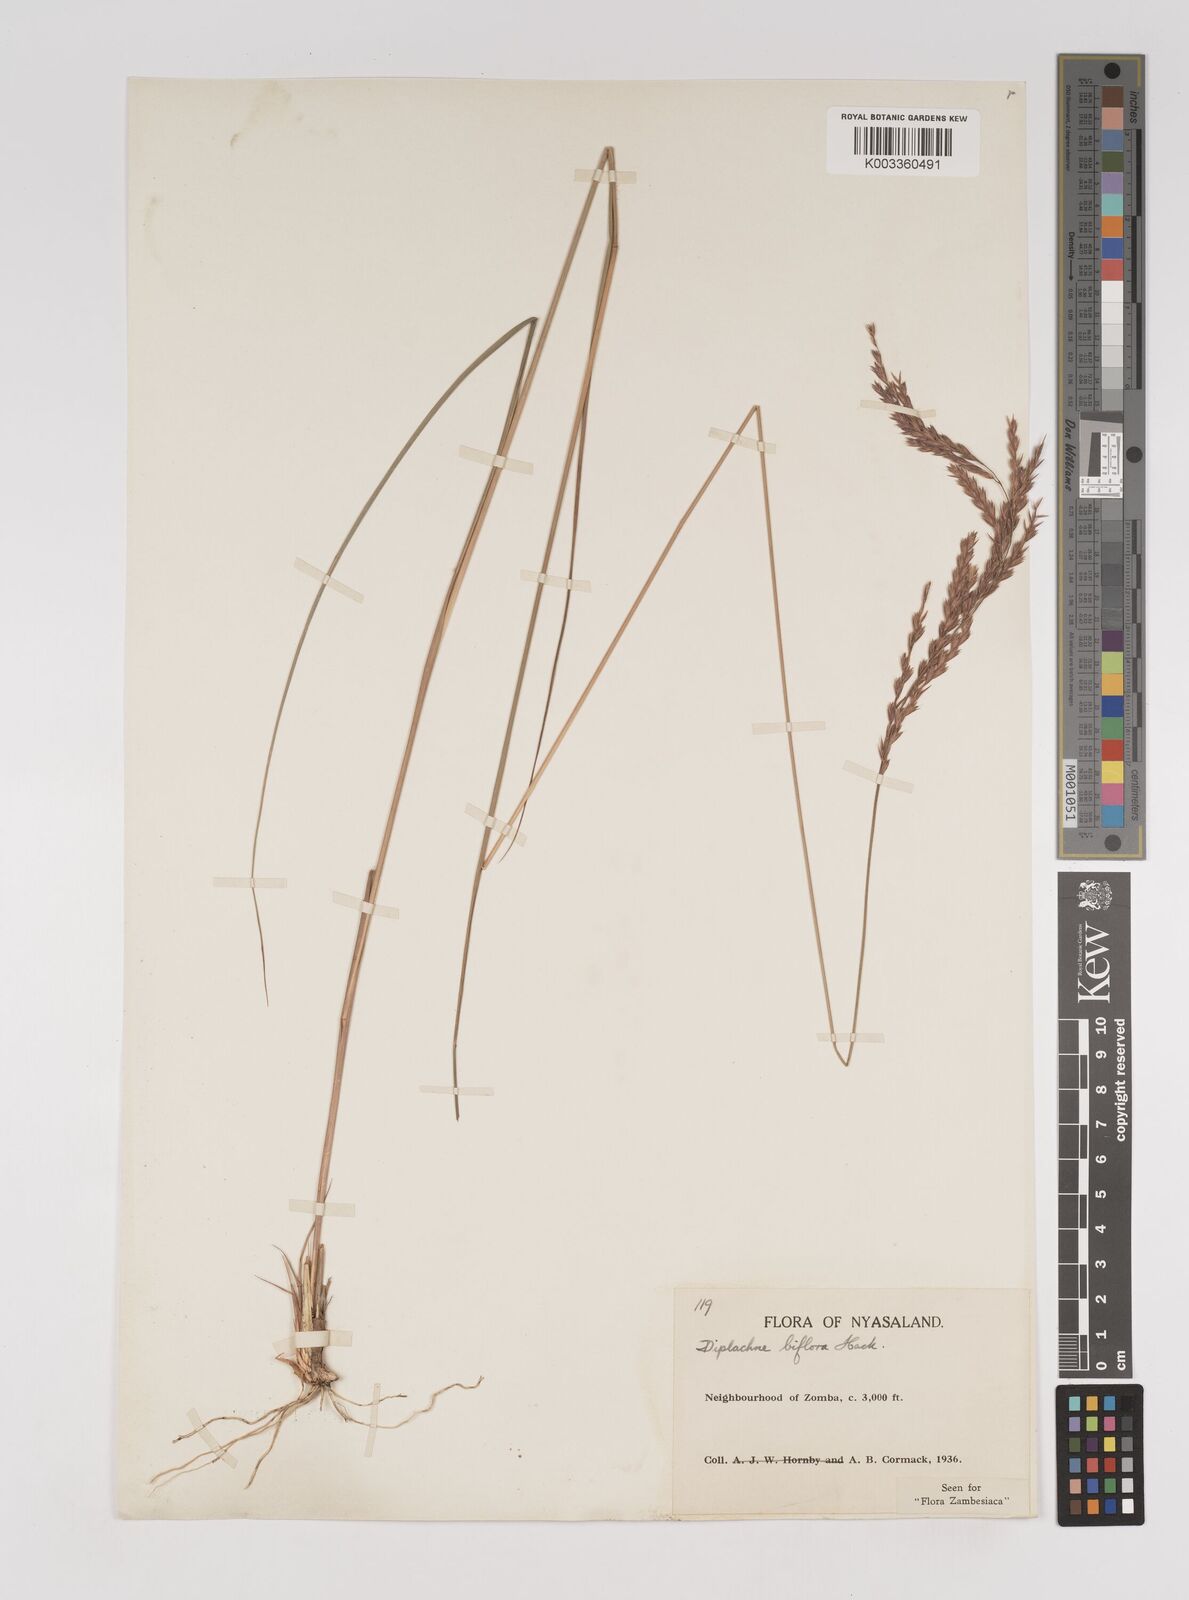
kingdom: Plantae
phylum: Tracheophyta
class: Liliopsida
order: Poales
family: Poaceae
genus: Bewsia
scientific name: Bewsia biflora
